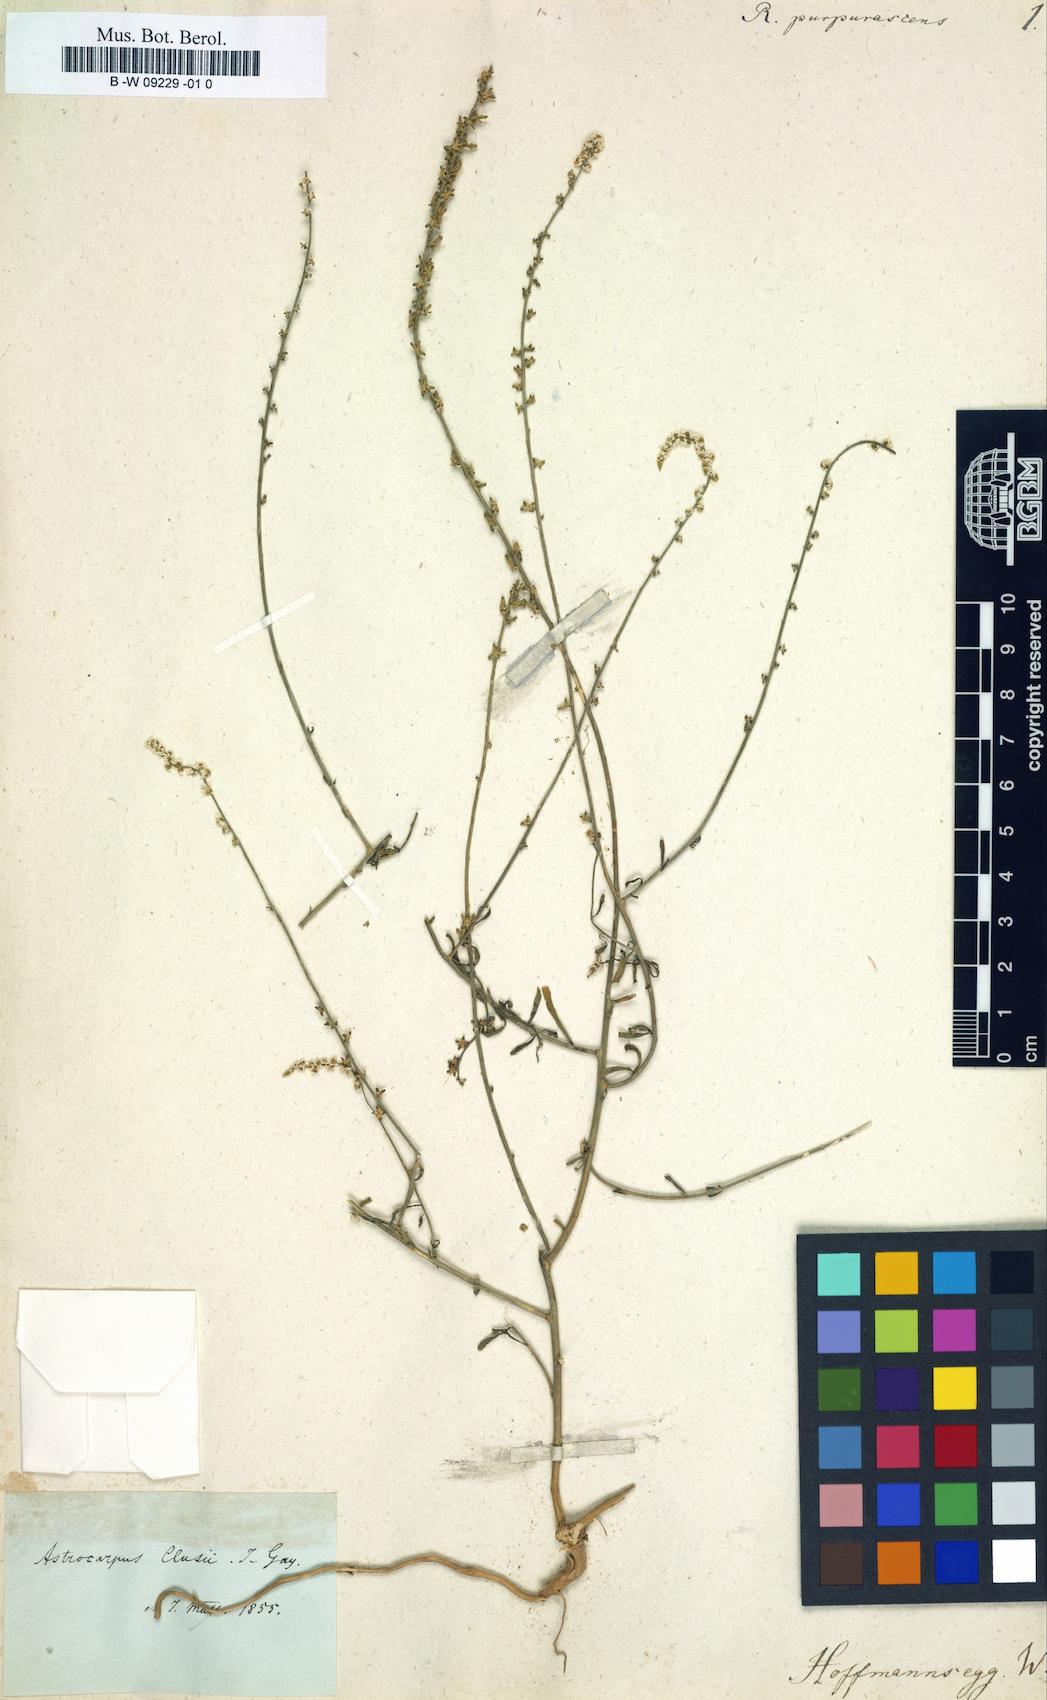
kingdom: Plantae
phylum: Tracheophyta
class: Magnoliopsida
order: Brassicales
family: Resedaceae
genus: Sesamoides
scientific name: Sesamoides purpurascens
